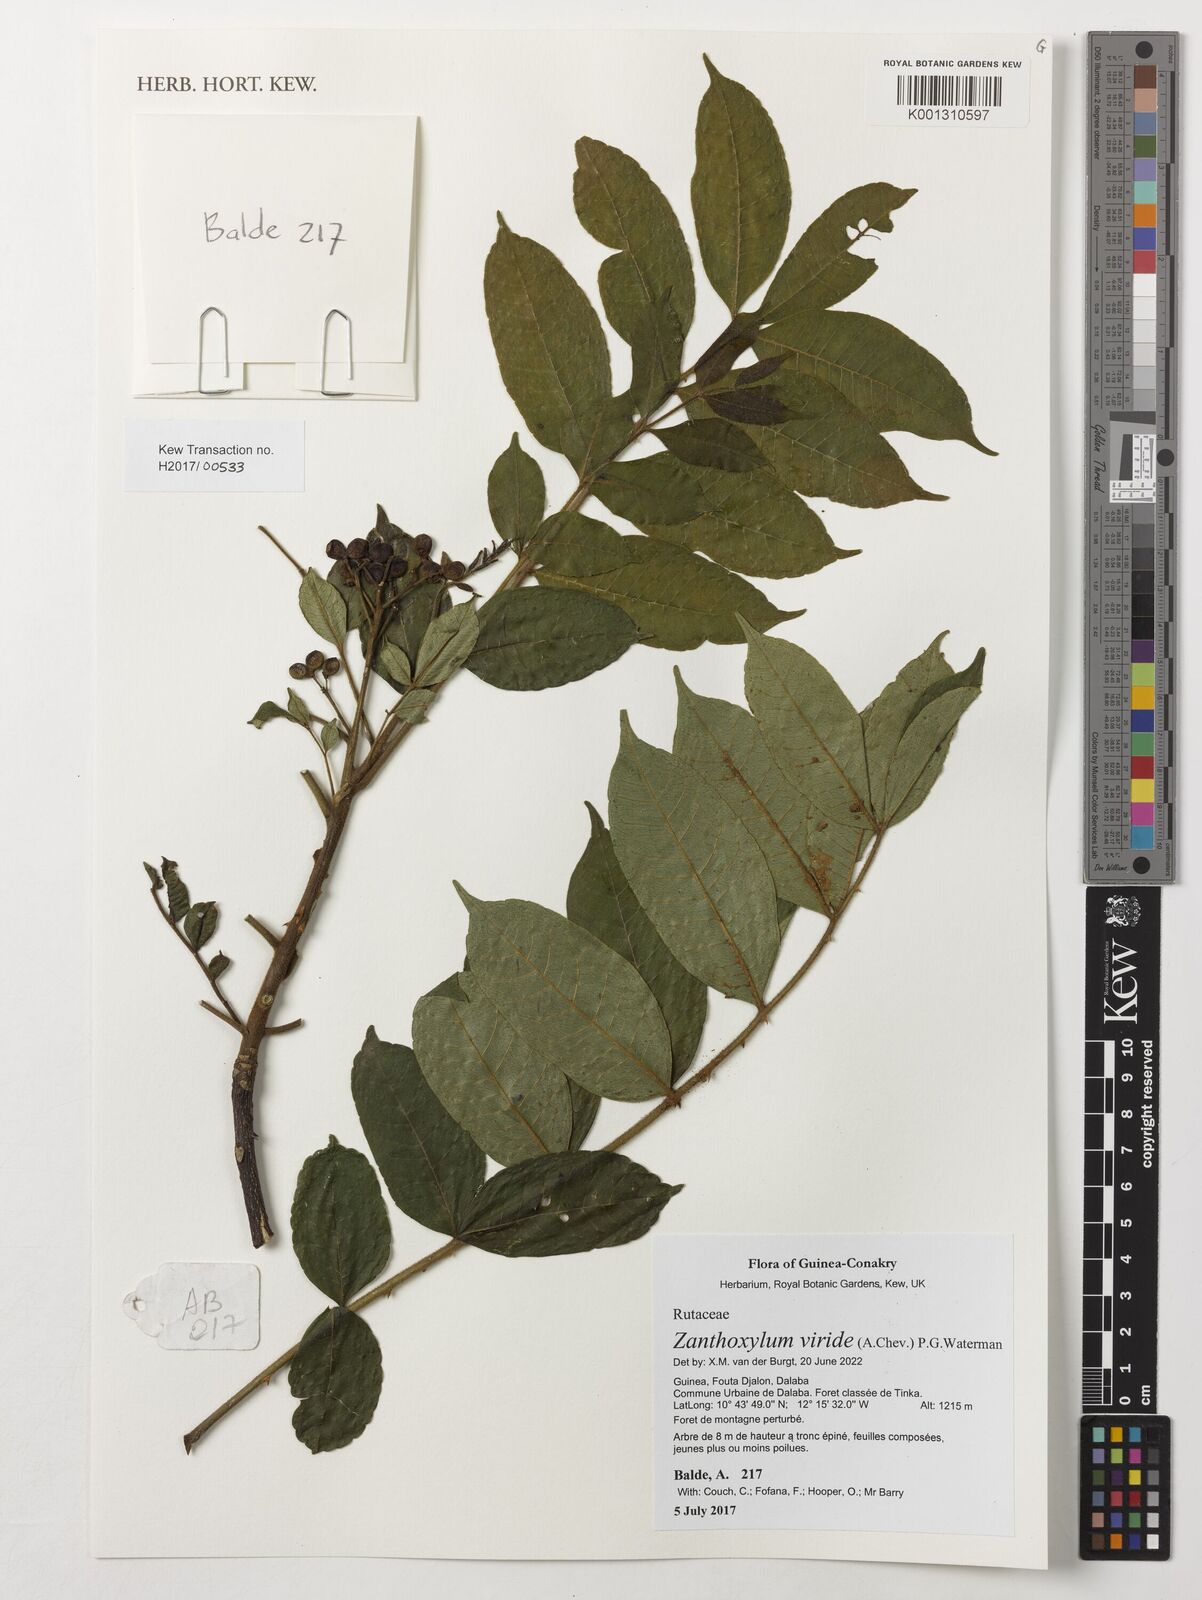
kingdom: Plantae
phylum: Tracheophyta
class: Magnoliopsida
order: Sapindales
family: Rutaceae
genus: Zanthoxylum
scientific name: Zanthoxylum viride
